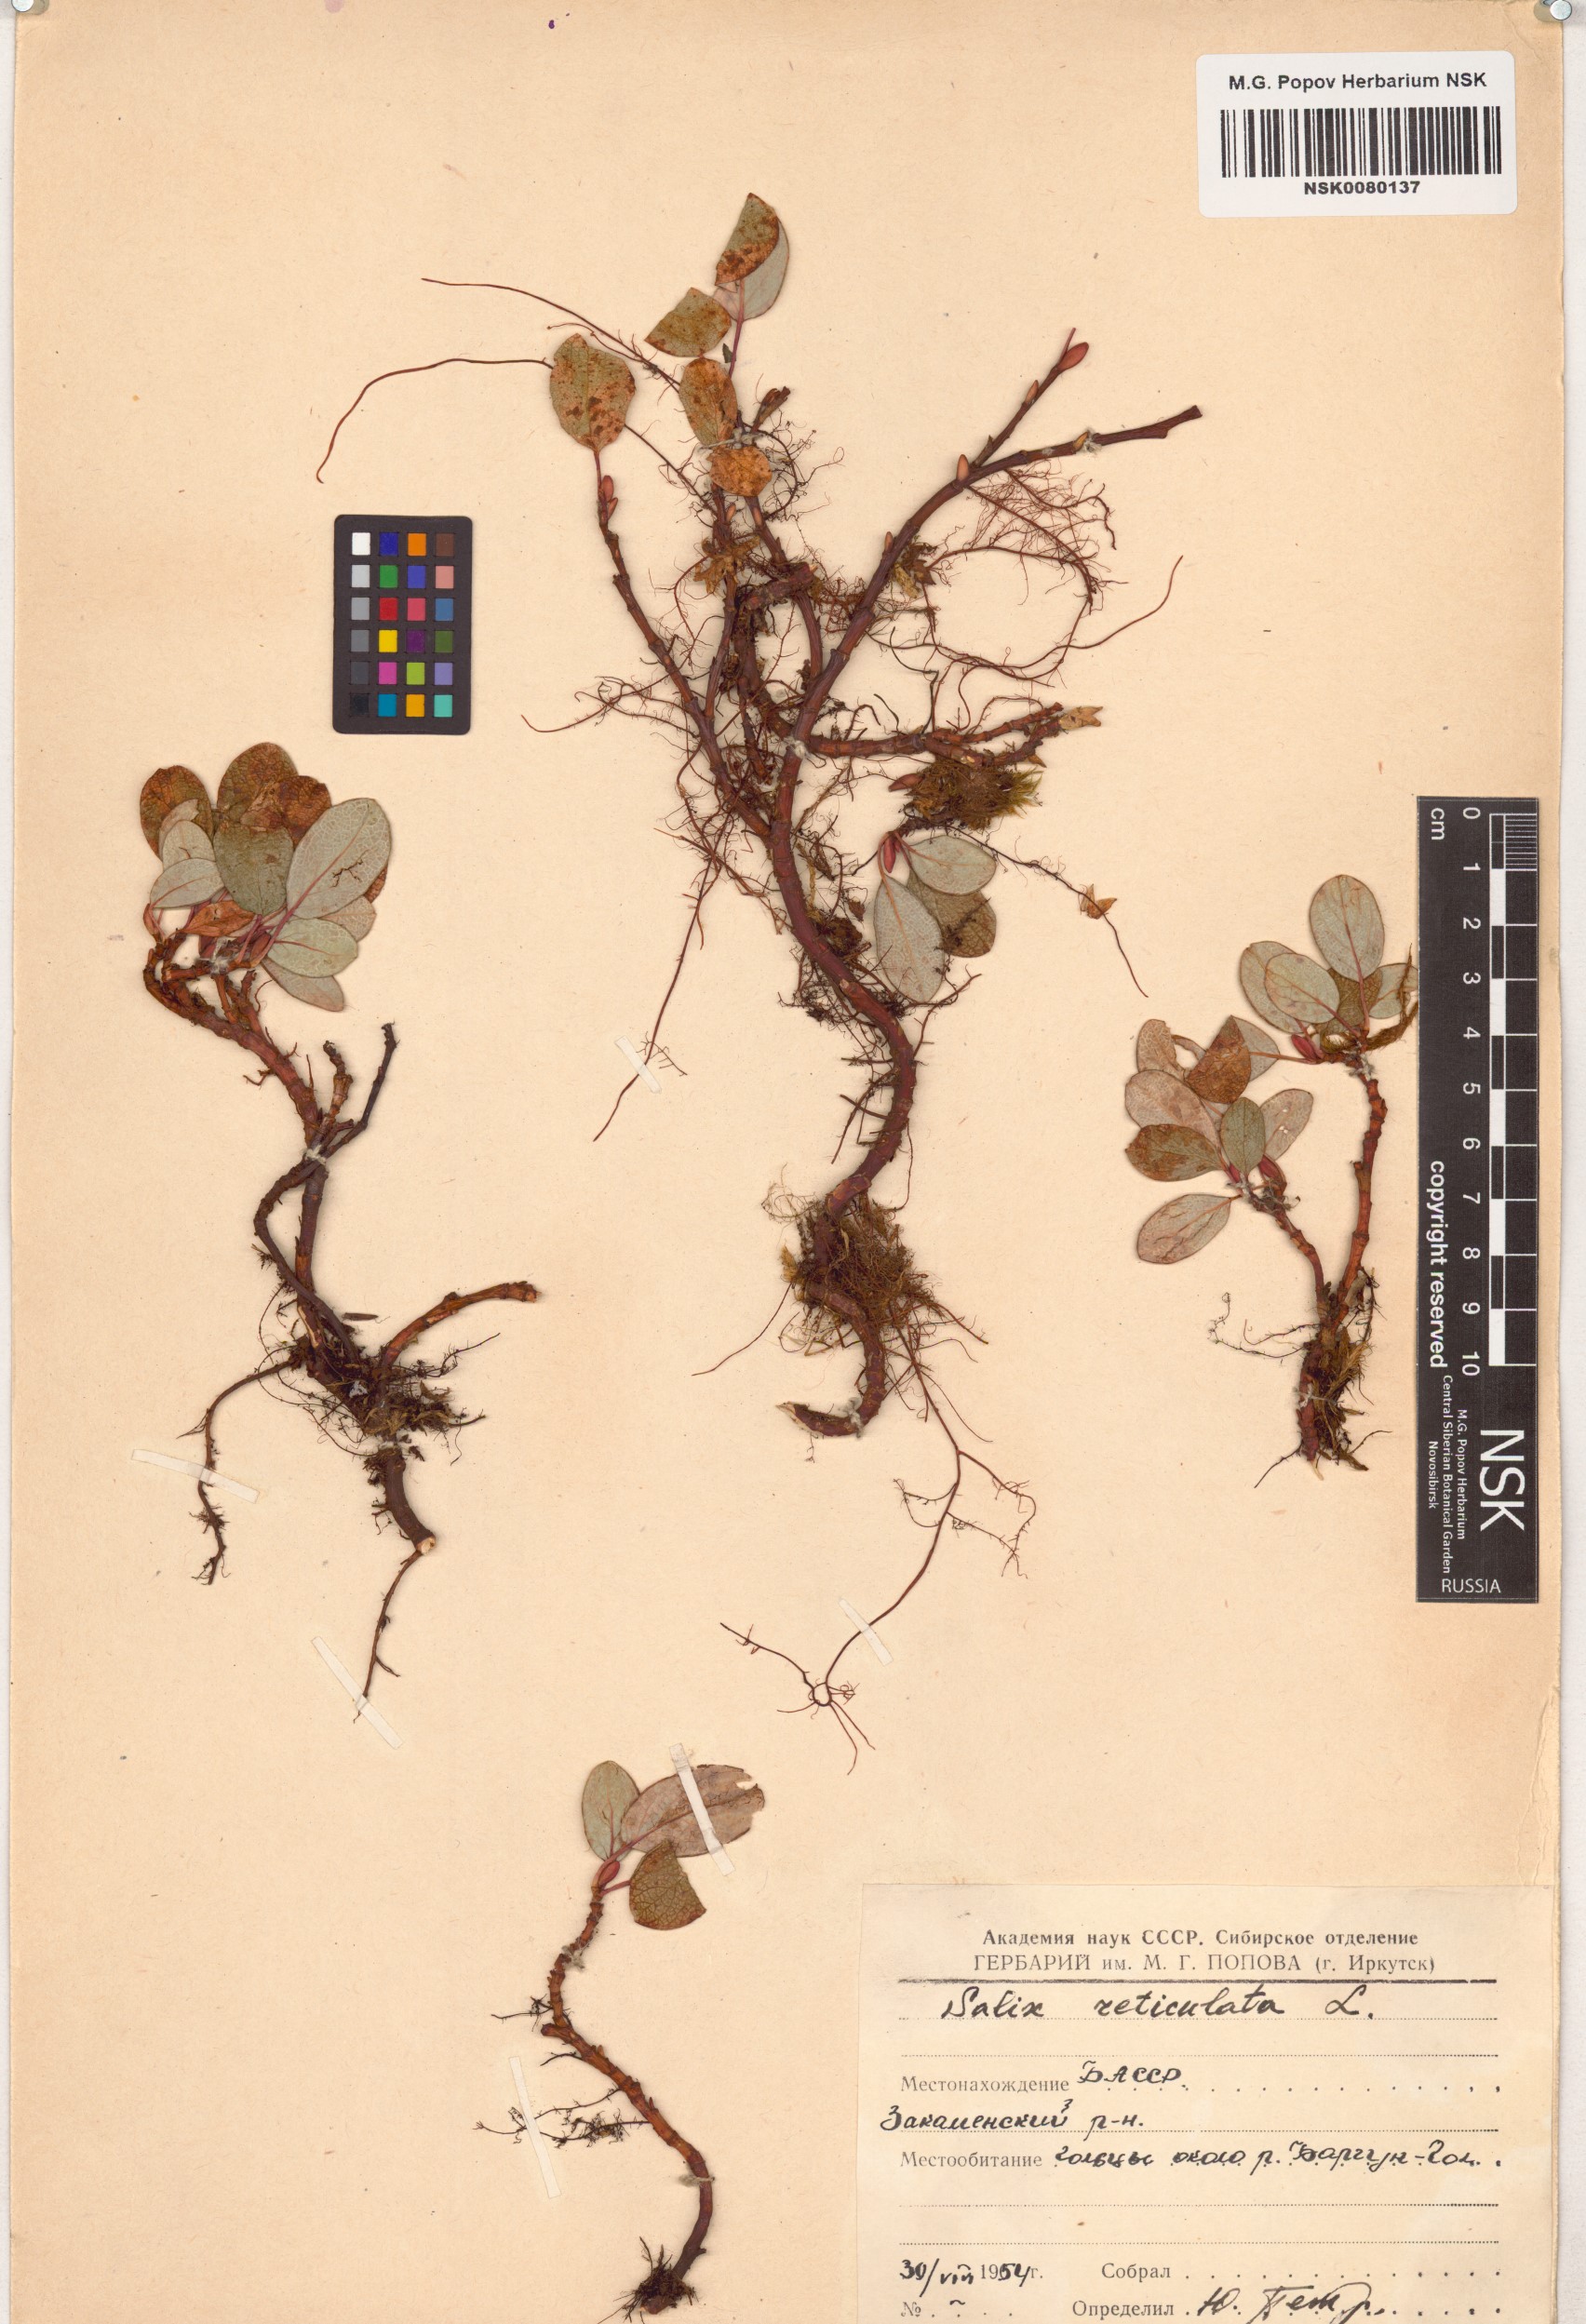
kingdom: Plantae
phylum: Tracheophyta
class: Magnoliopsida
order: Malpighiales
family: Salicaceae
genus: Salix
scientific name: Salix reticulata
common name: Net-leaved willow
